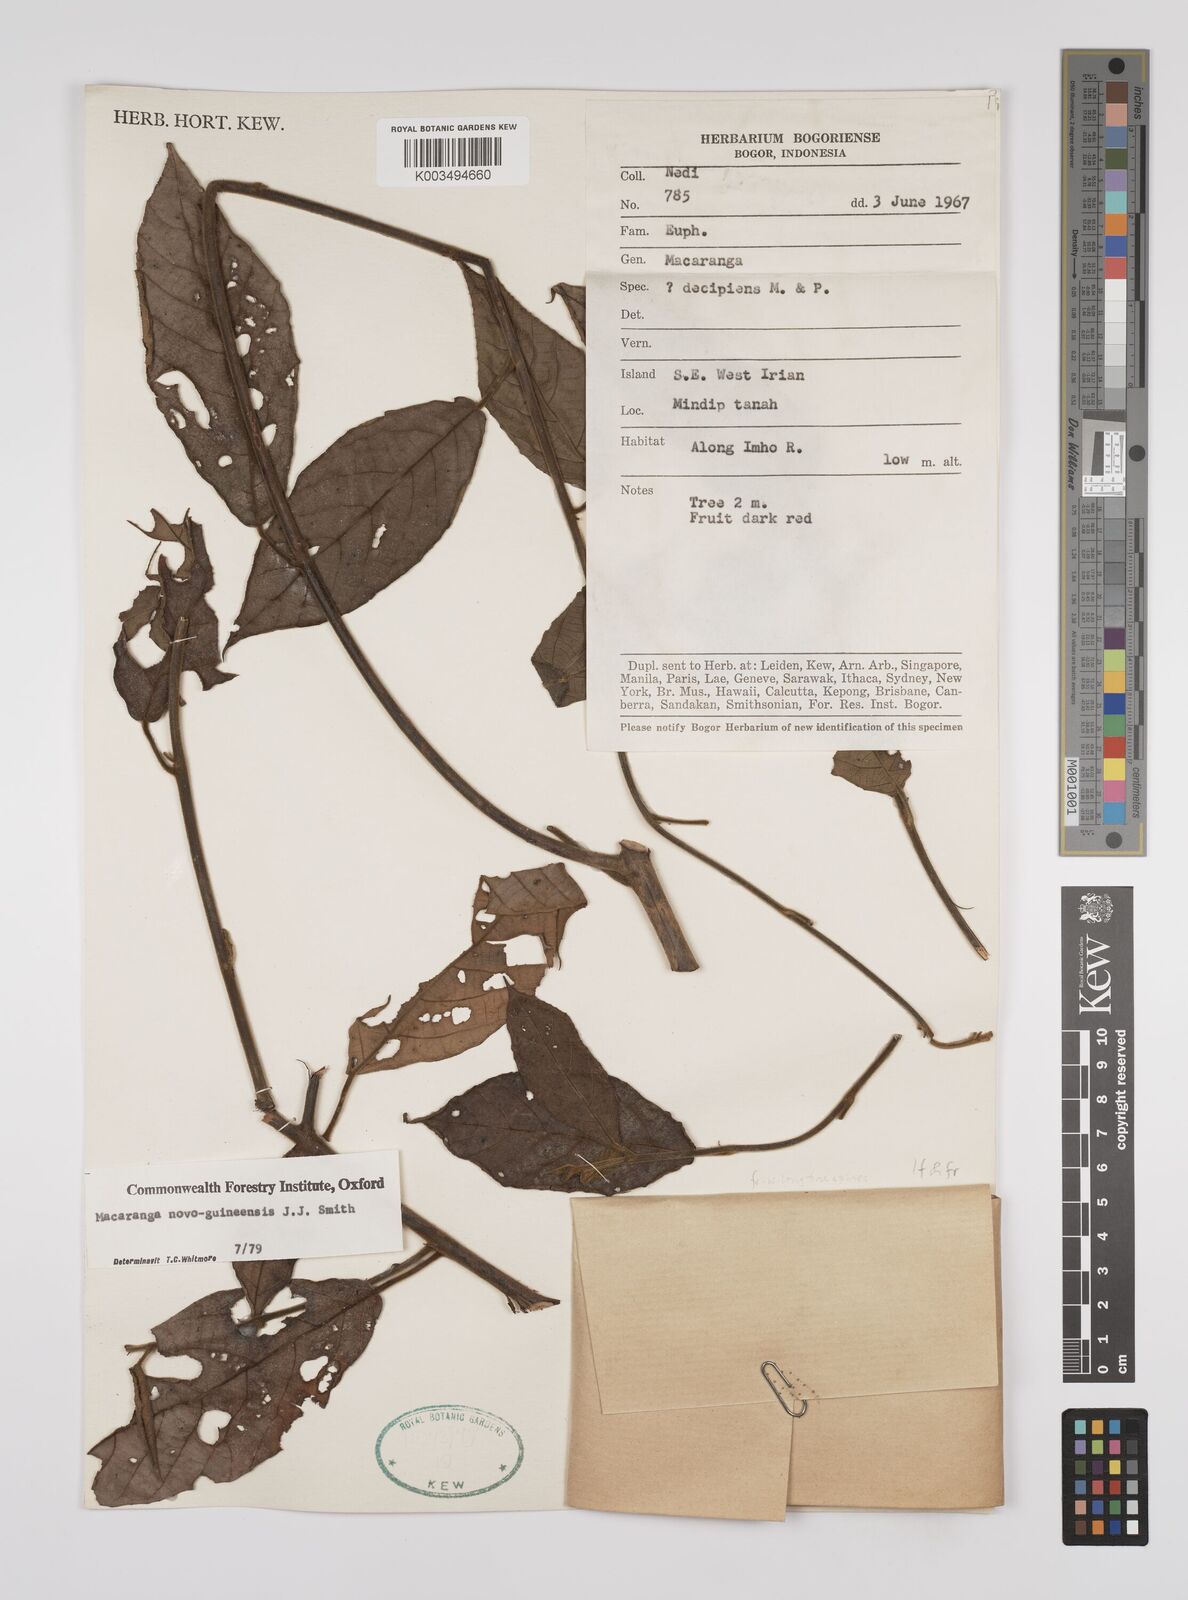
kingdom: Plantae
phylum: Tracheophyta
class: Magnoliopsida
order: Malpighiales
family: Euphorbiaceae
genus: Macaranga
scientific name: Macaranga novoguineensis
